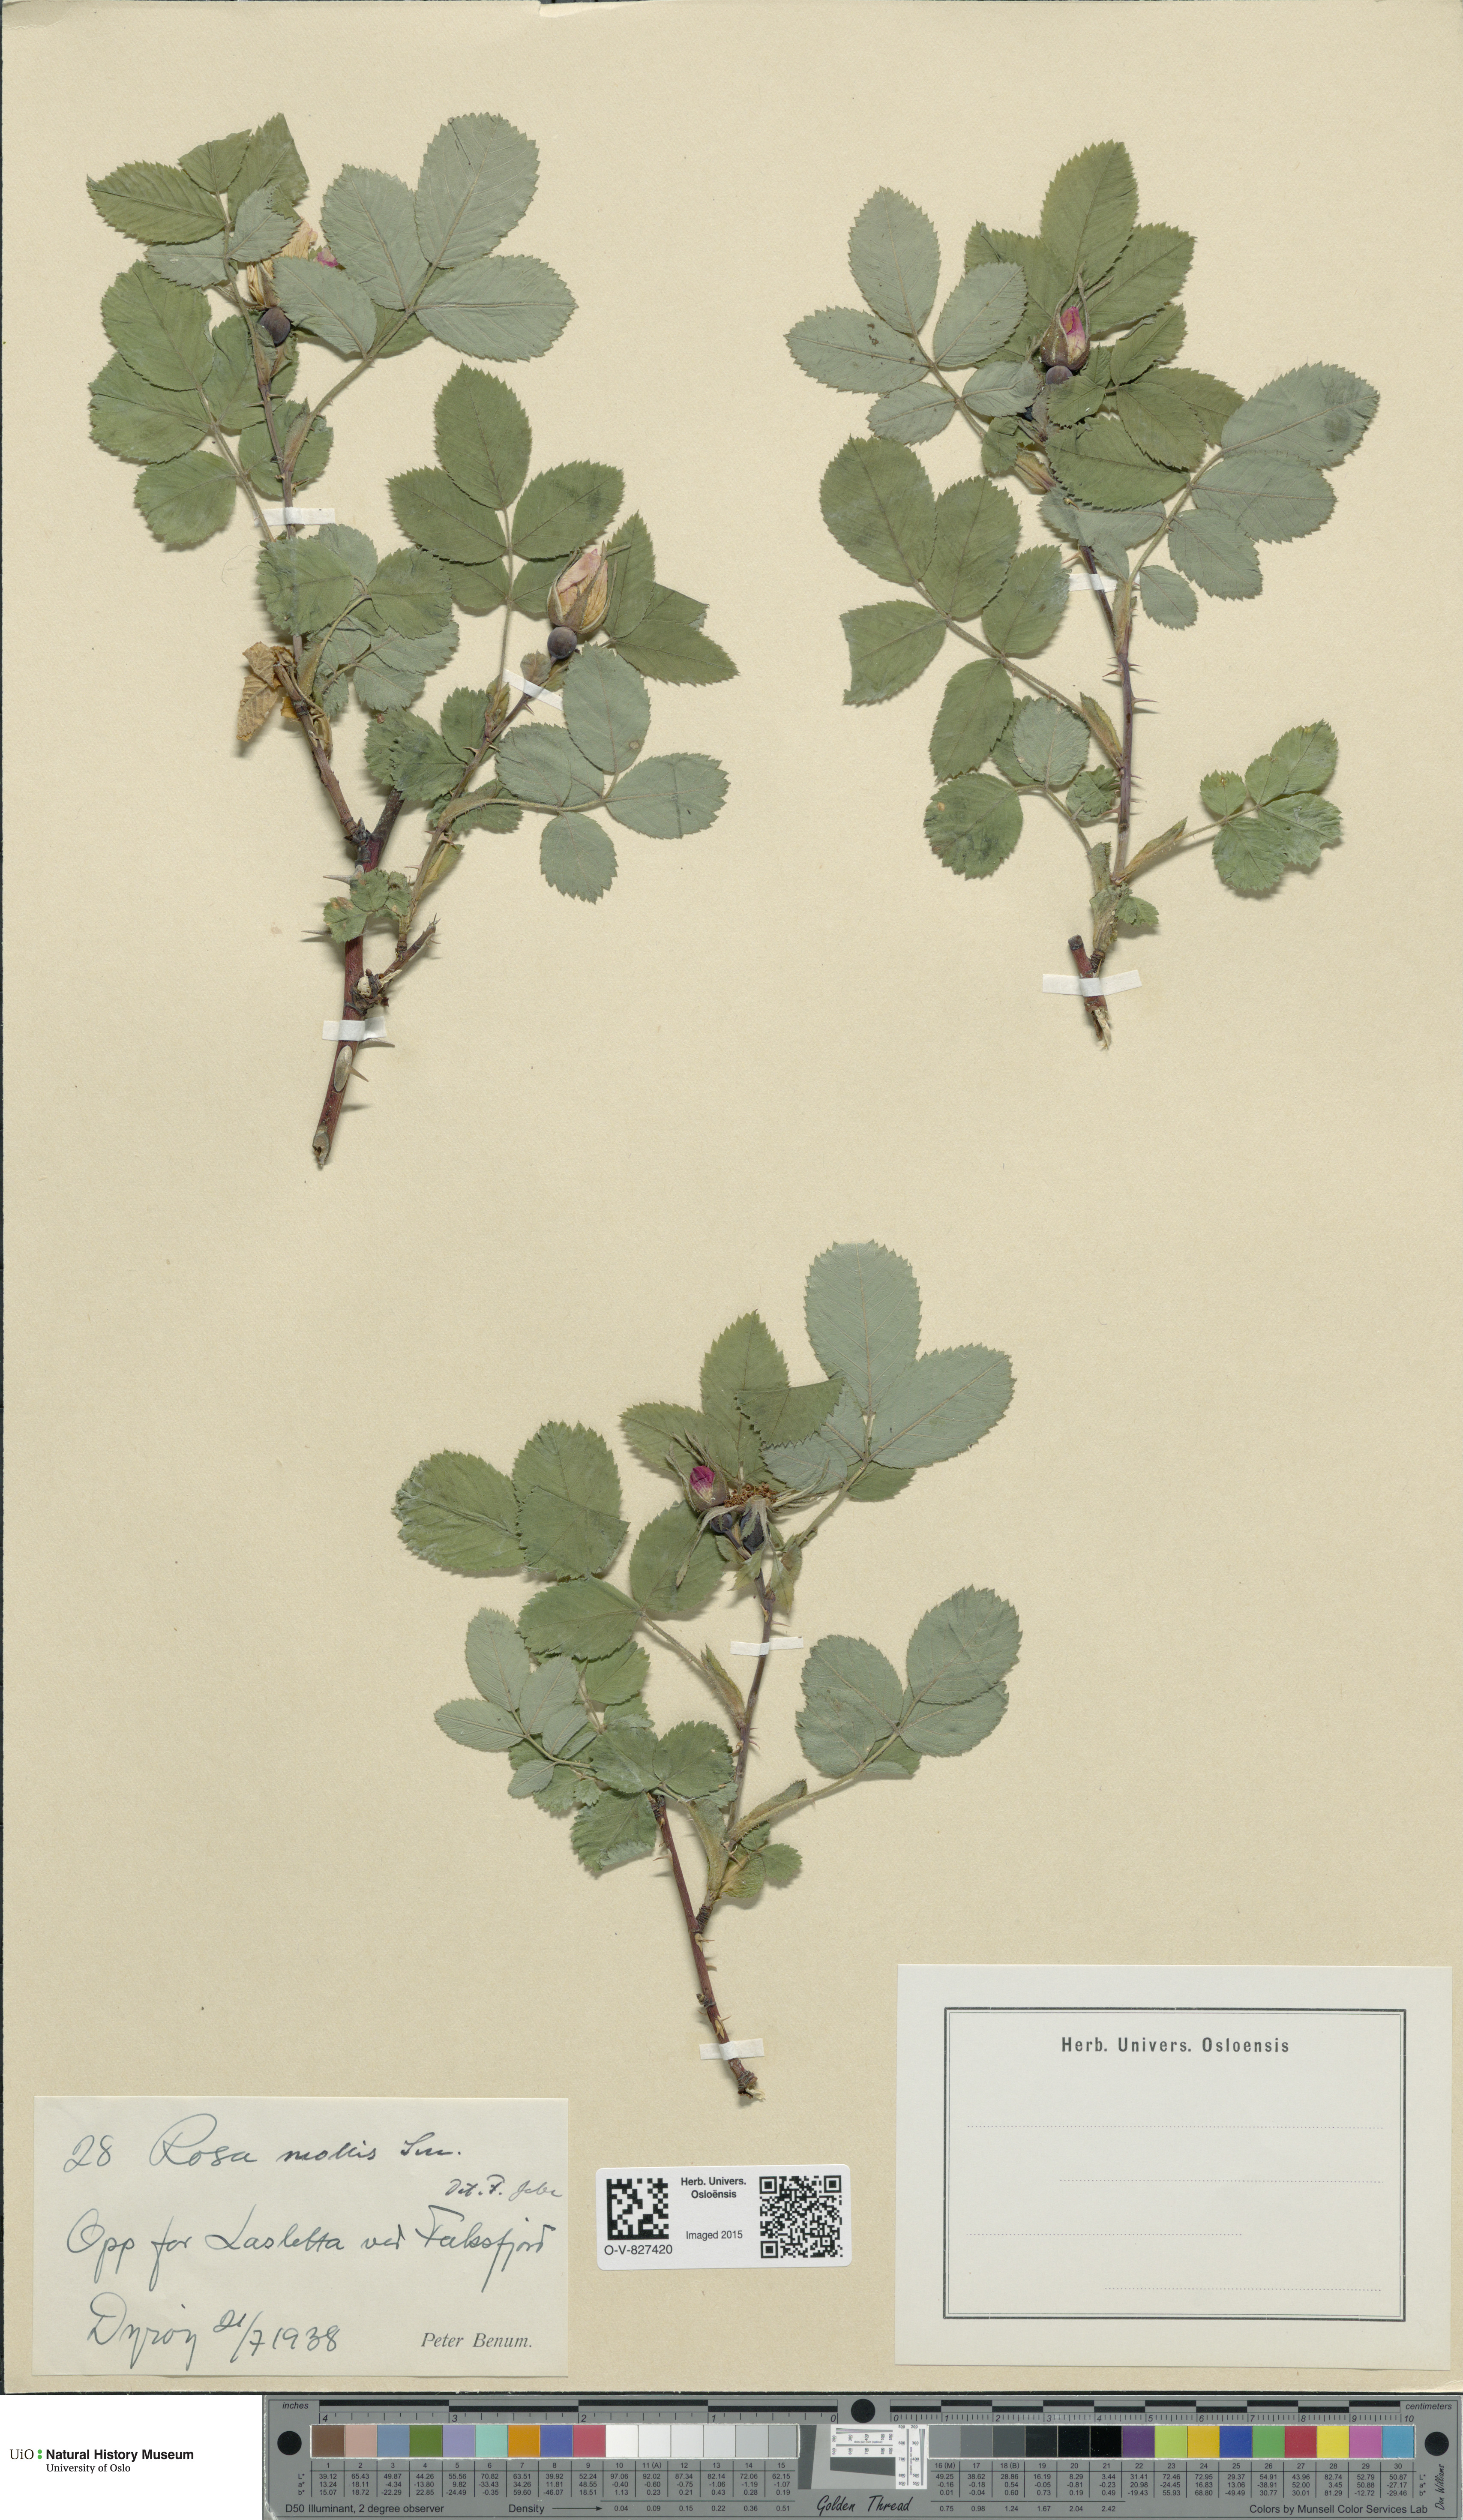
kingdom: Plantae
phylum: Tracheophyta
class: Magnoliopsida
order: Rosales
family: Rosaceae
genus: Rosa
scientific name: Rosa mollis
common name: Rose
